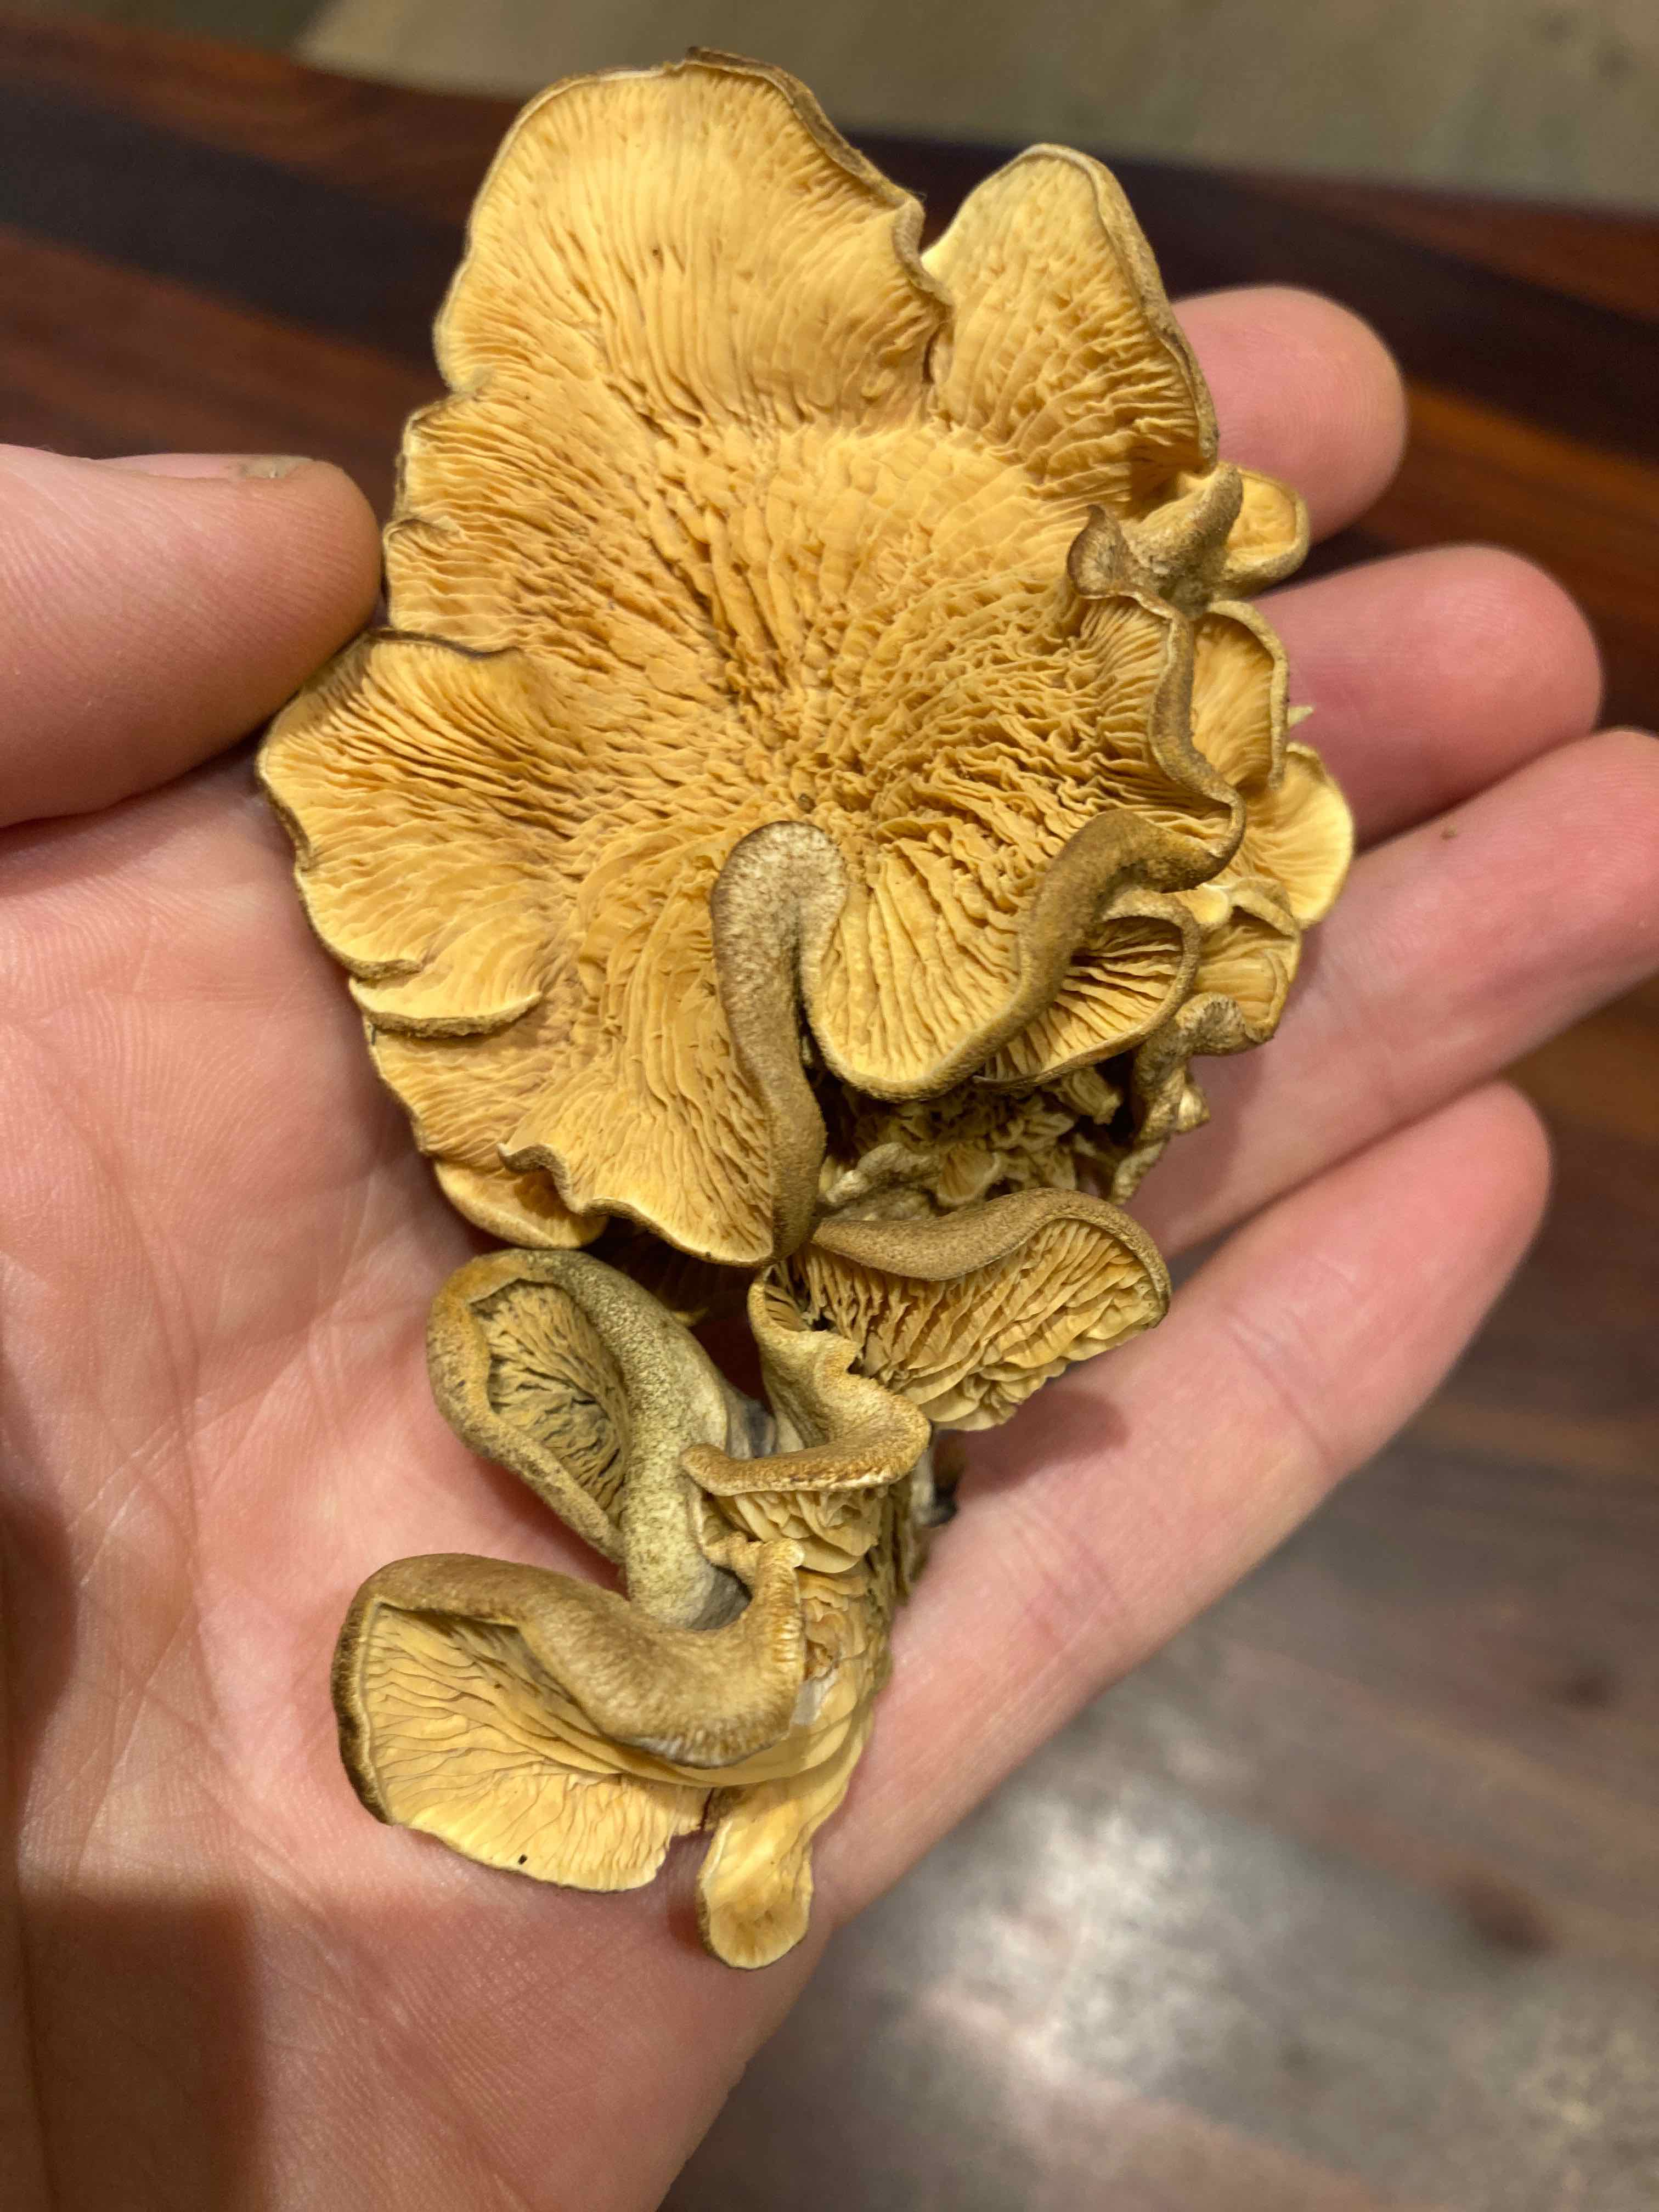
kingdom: Fungi
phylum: Basidiomycota
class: Agaricomycetes
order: Amylocorticiales
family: Amylocorticiaceae
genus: Plicaturopsis
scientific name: Plicaturopsis crispa
